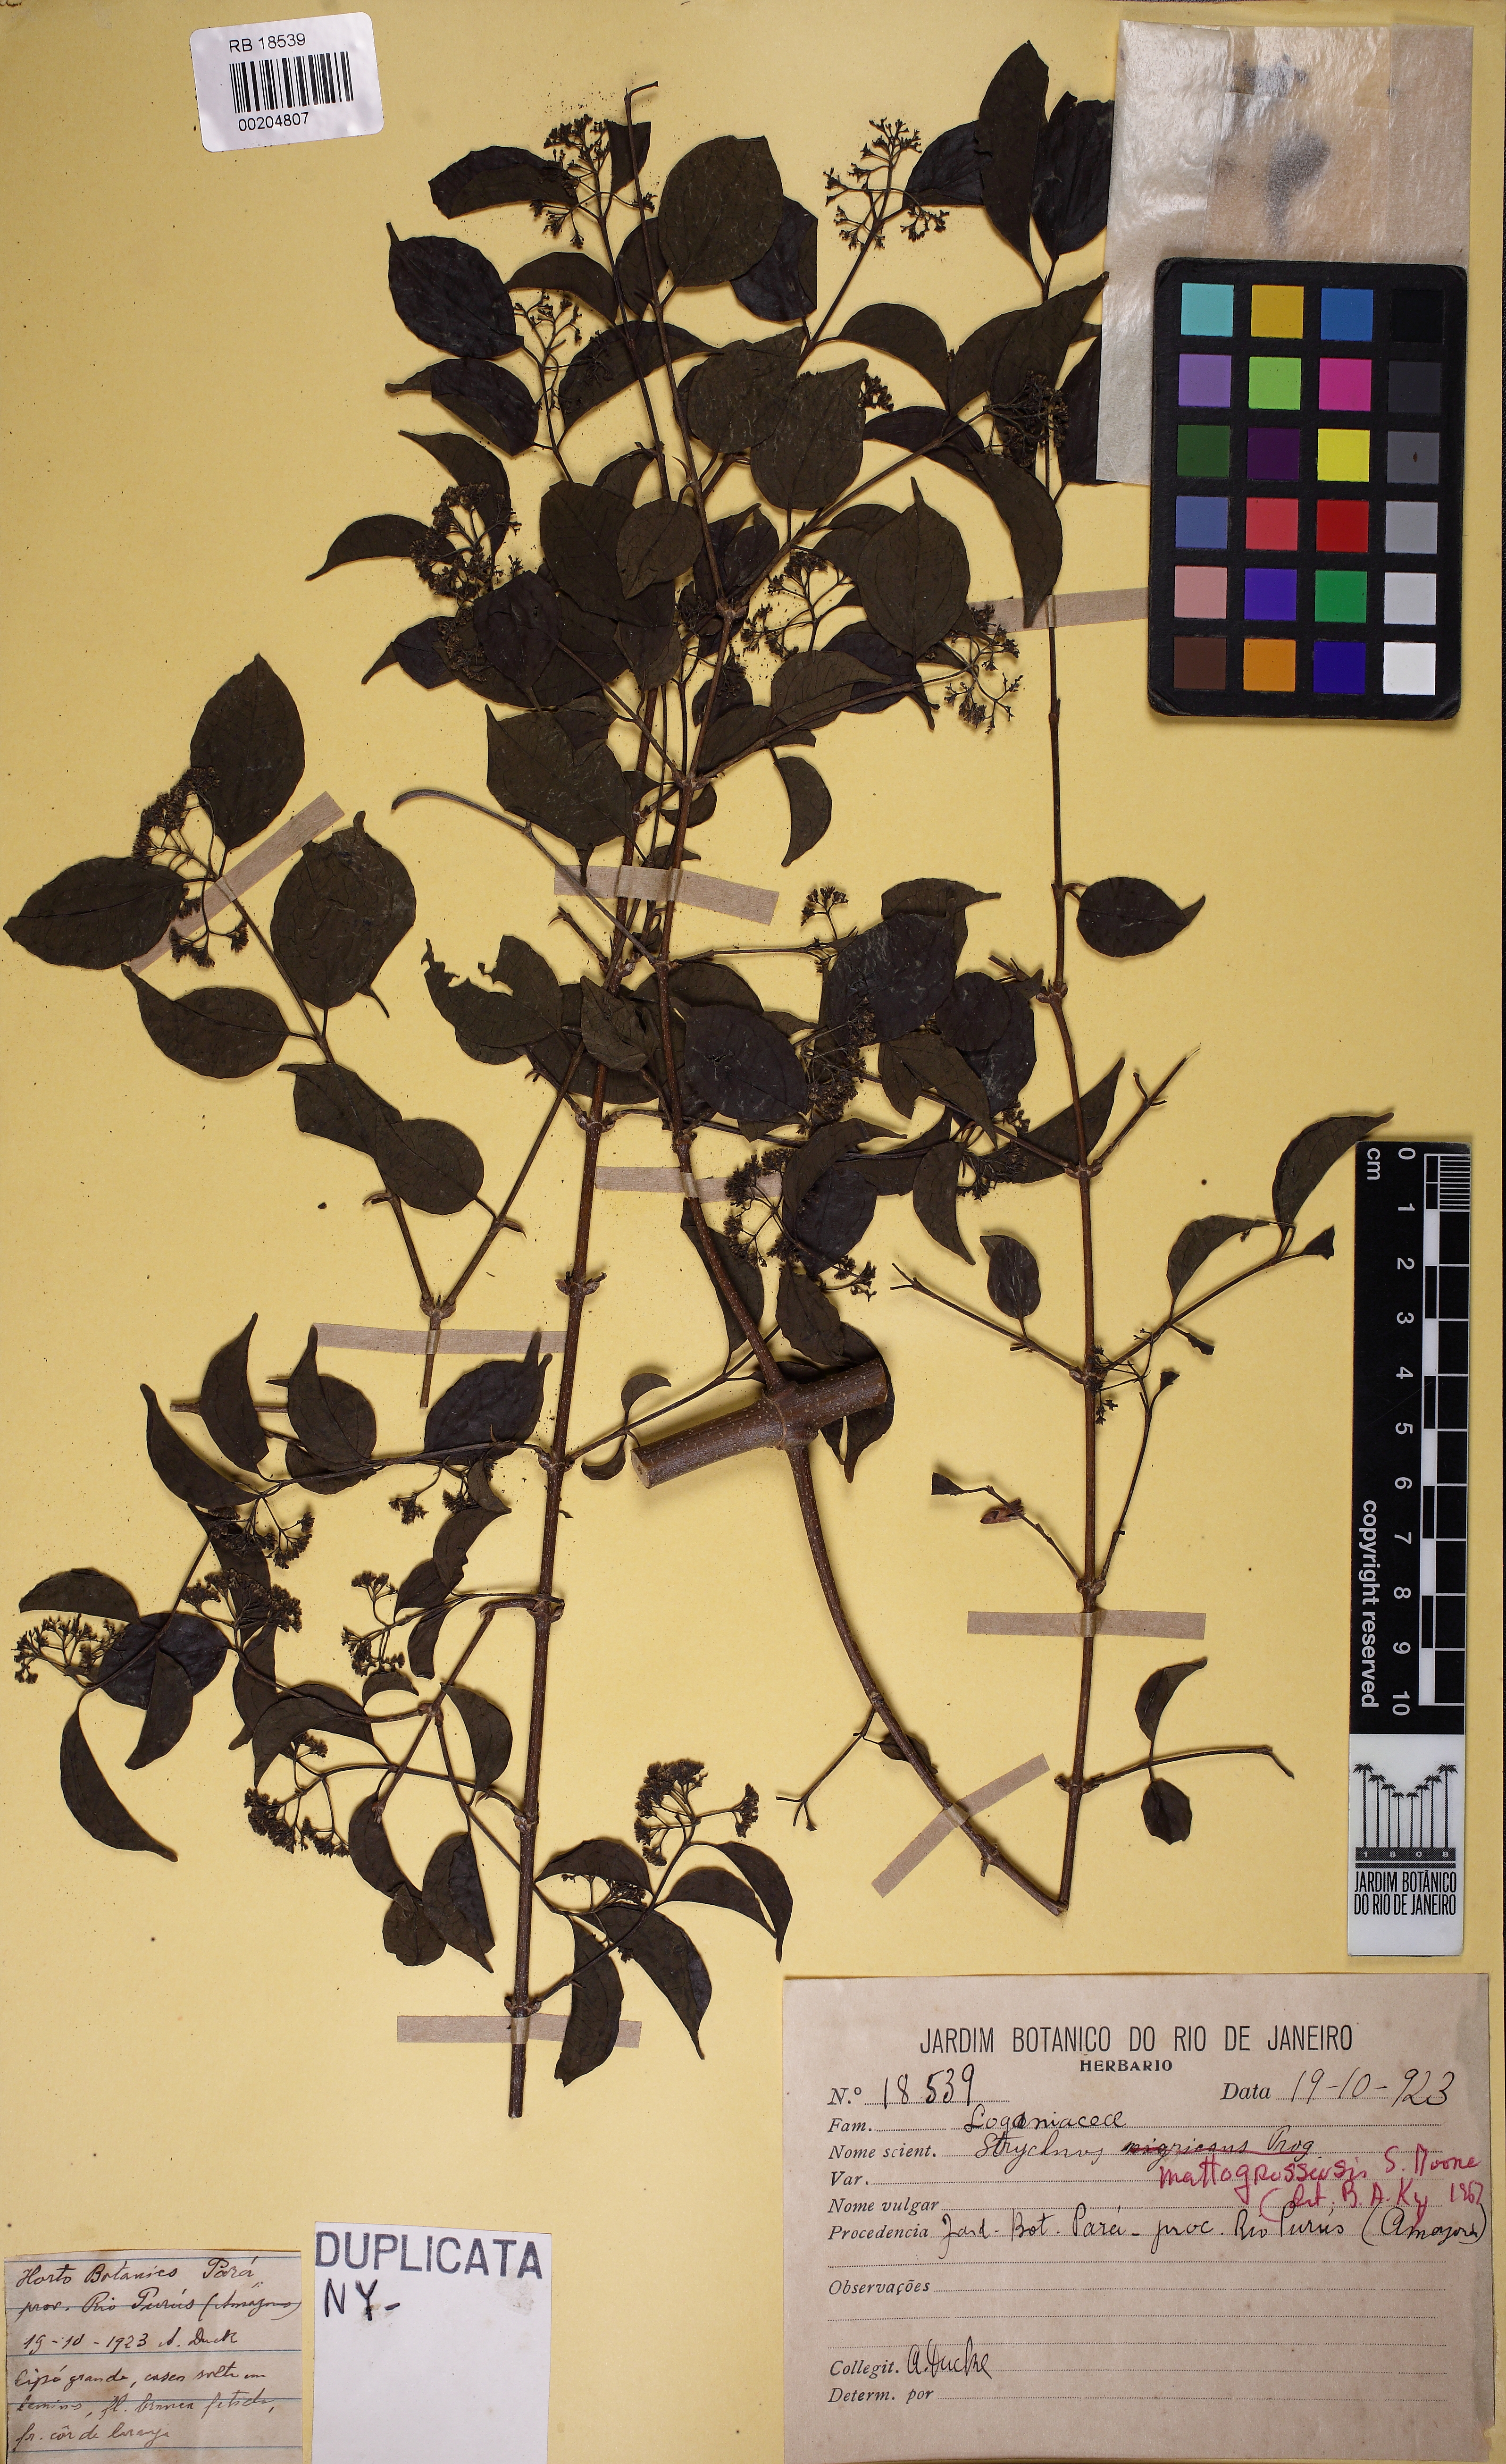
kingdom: Plantae
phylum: Tracheophyta
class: Magnoliopsida
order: Gentianales
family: Loganiaceae
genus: Strychnos
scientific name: Strychnos mattogrossensis
